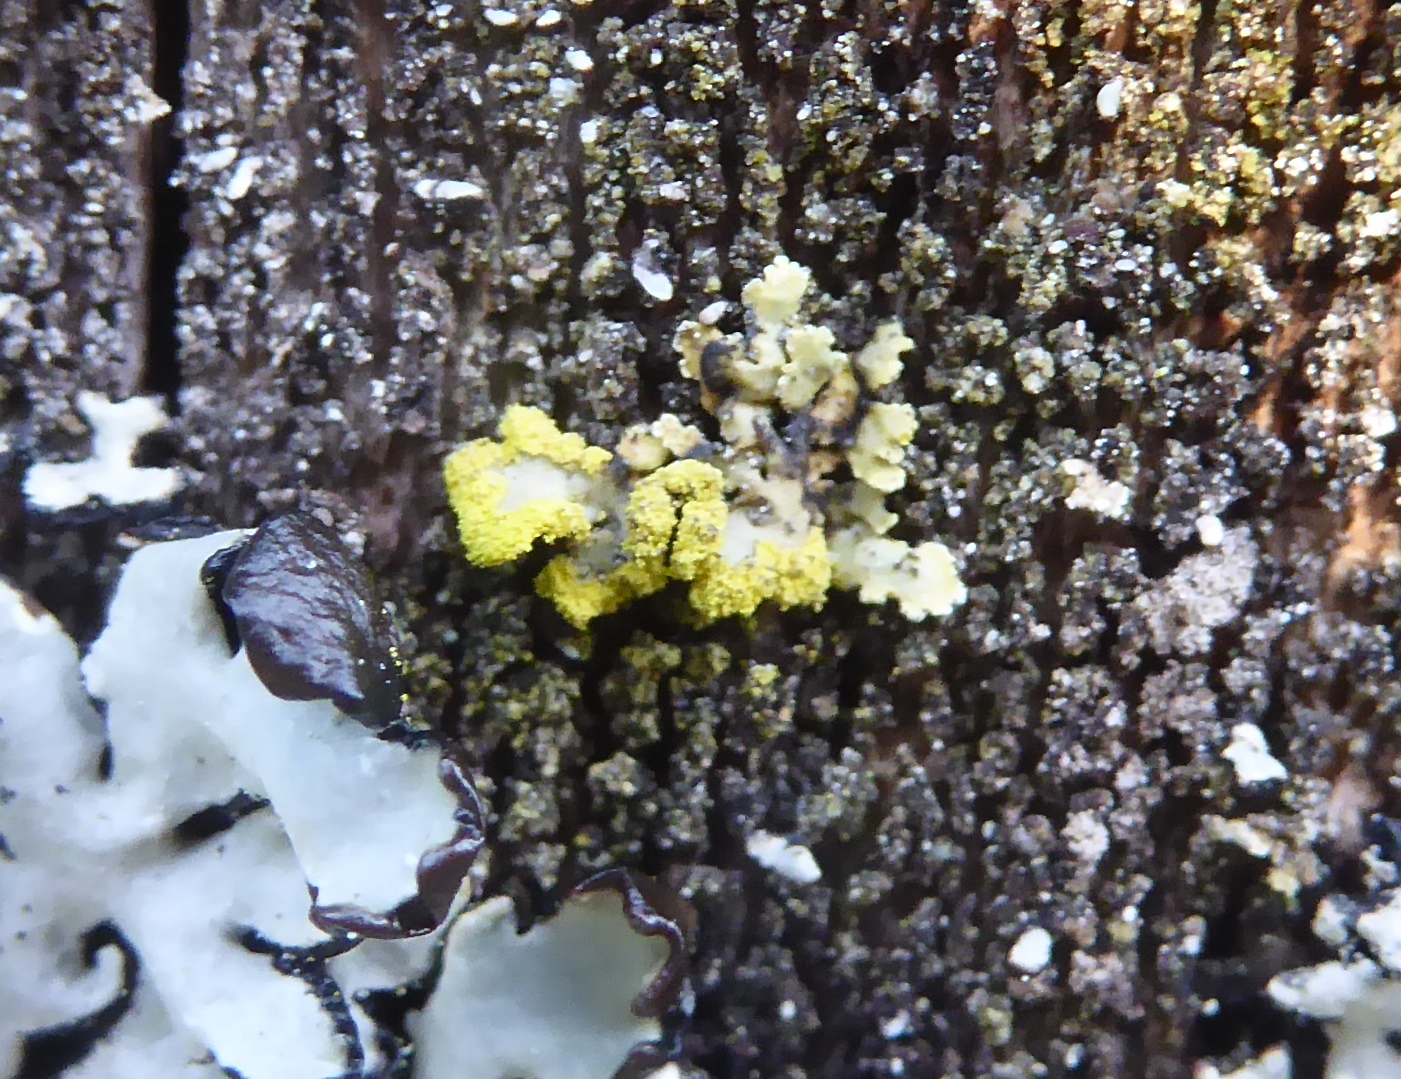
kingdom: Fungi
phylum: Ascomycota
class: Lecanoromycetes
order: Lecanorales
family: Parmeliaceae
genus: Vulpicida
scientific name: Vulpicida pinastri
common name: gul kruslav
